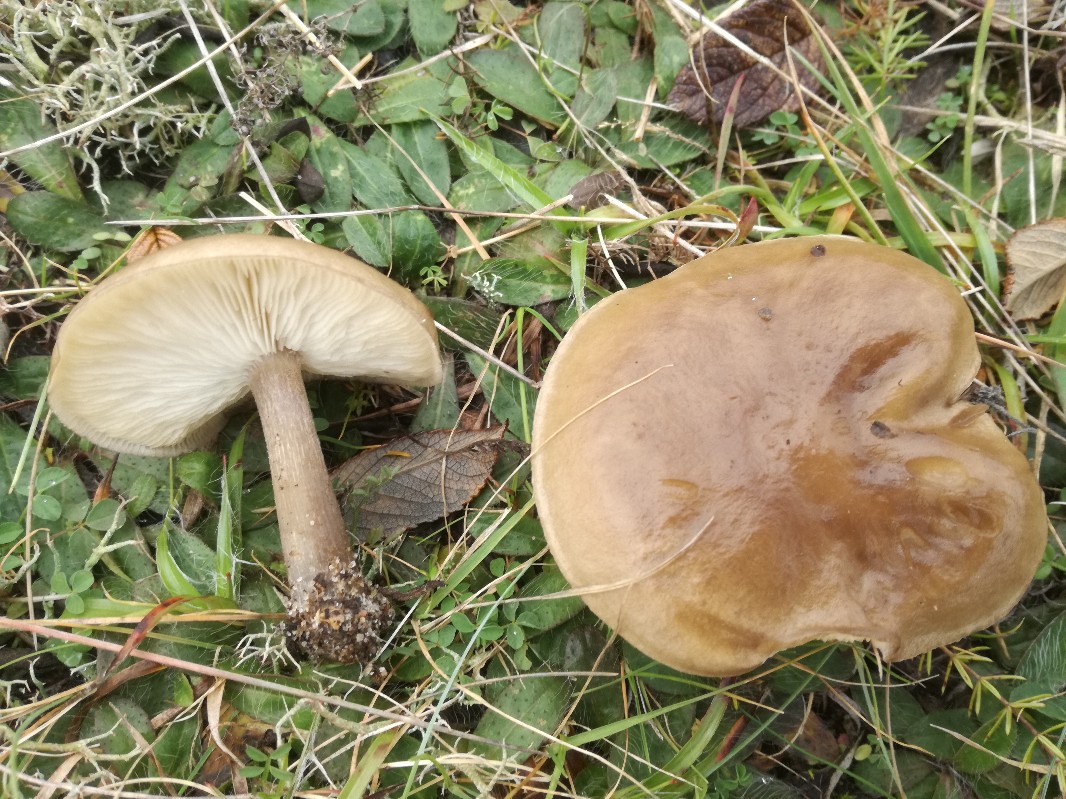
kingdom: Fungi
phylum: Basidiomycota
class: Agaricomycetes
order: Agaricales
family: Tricholomataceae
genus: Melanoleuca
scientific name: Melanoleuca polioleuca
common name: hvidbladet munkehat
